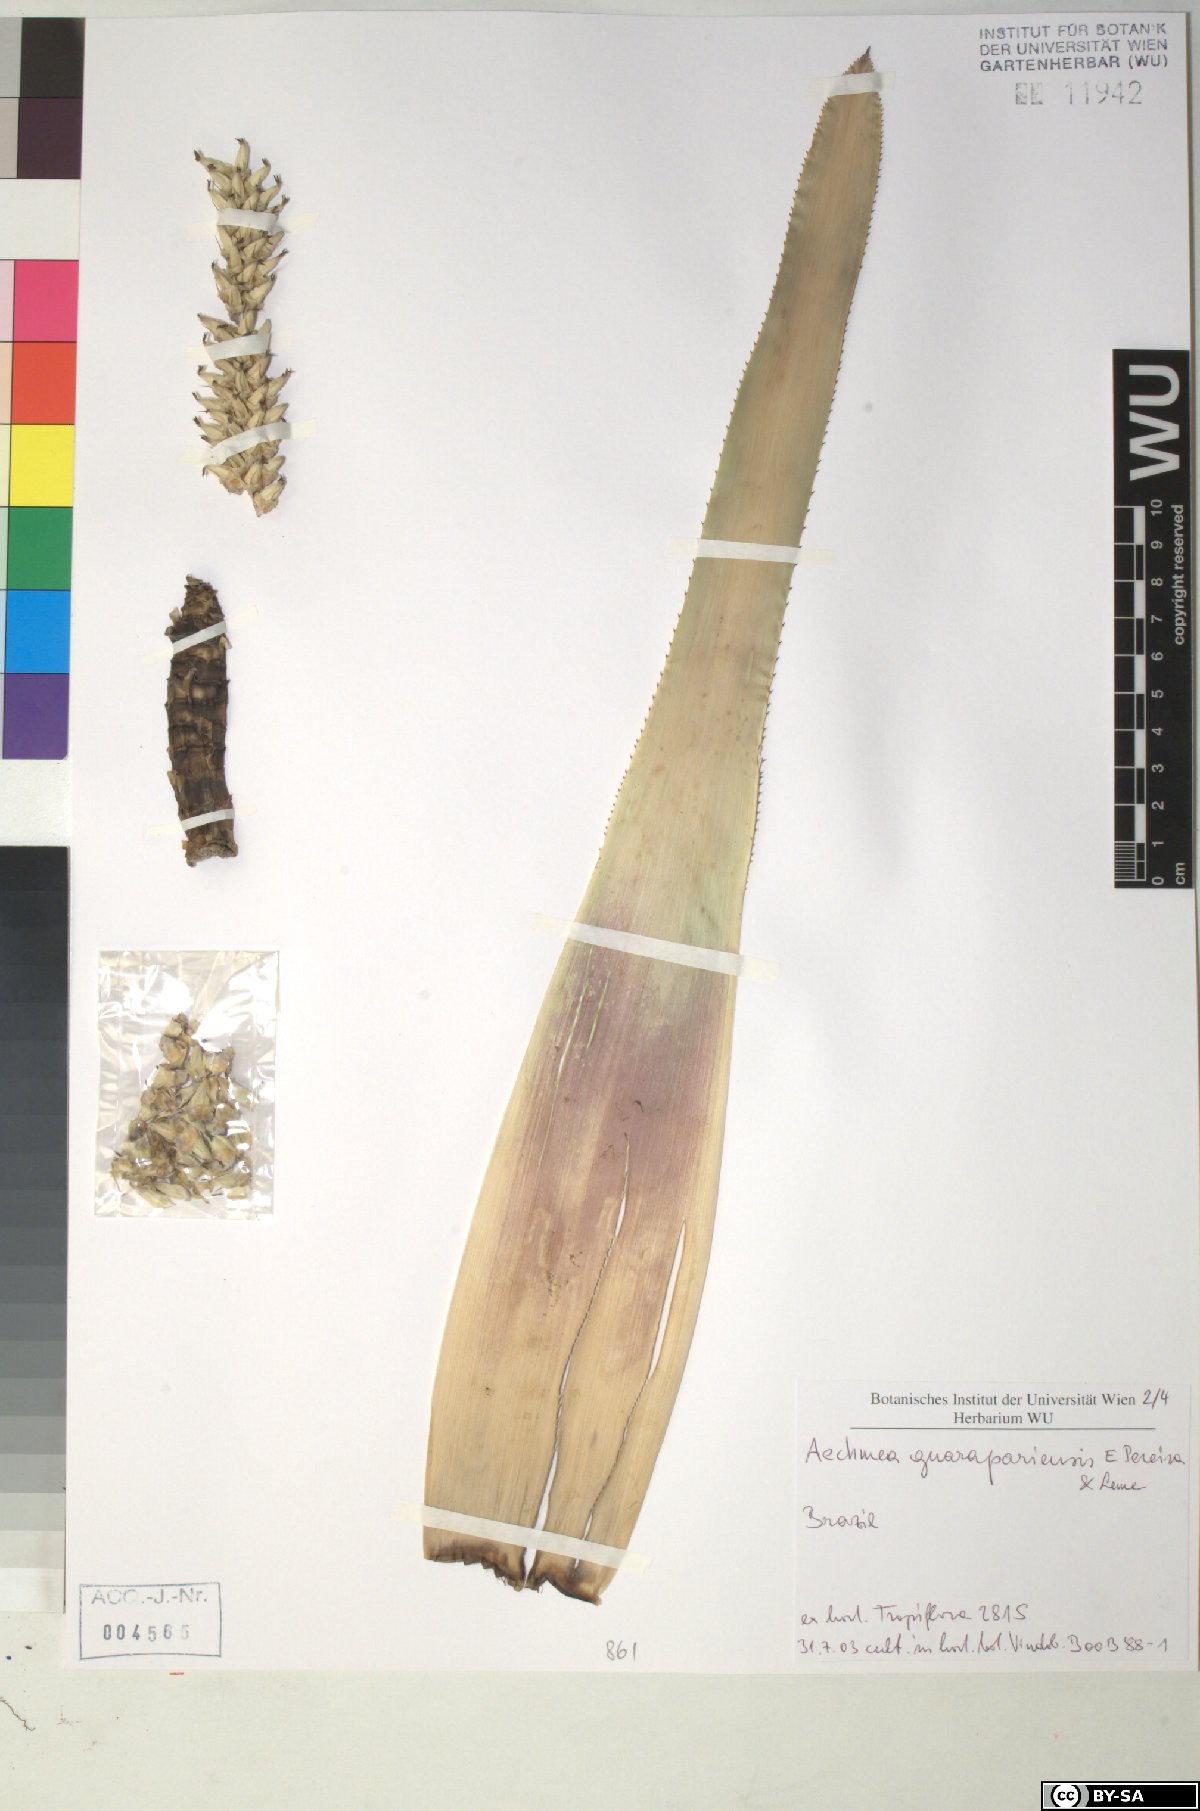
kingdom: Plantae
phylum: Tracheophyta
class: Liliopsida
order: Poales
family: Bromeliaceae
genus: Aechmea
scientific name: Aechmea roberto-seidelii
